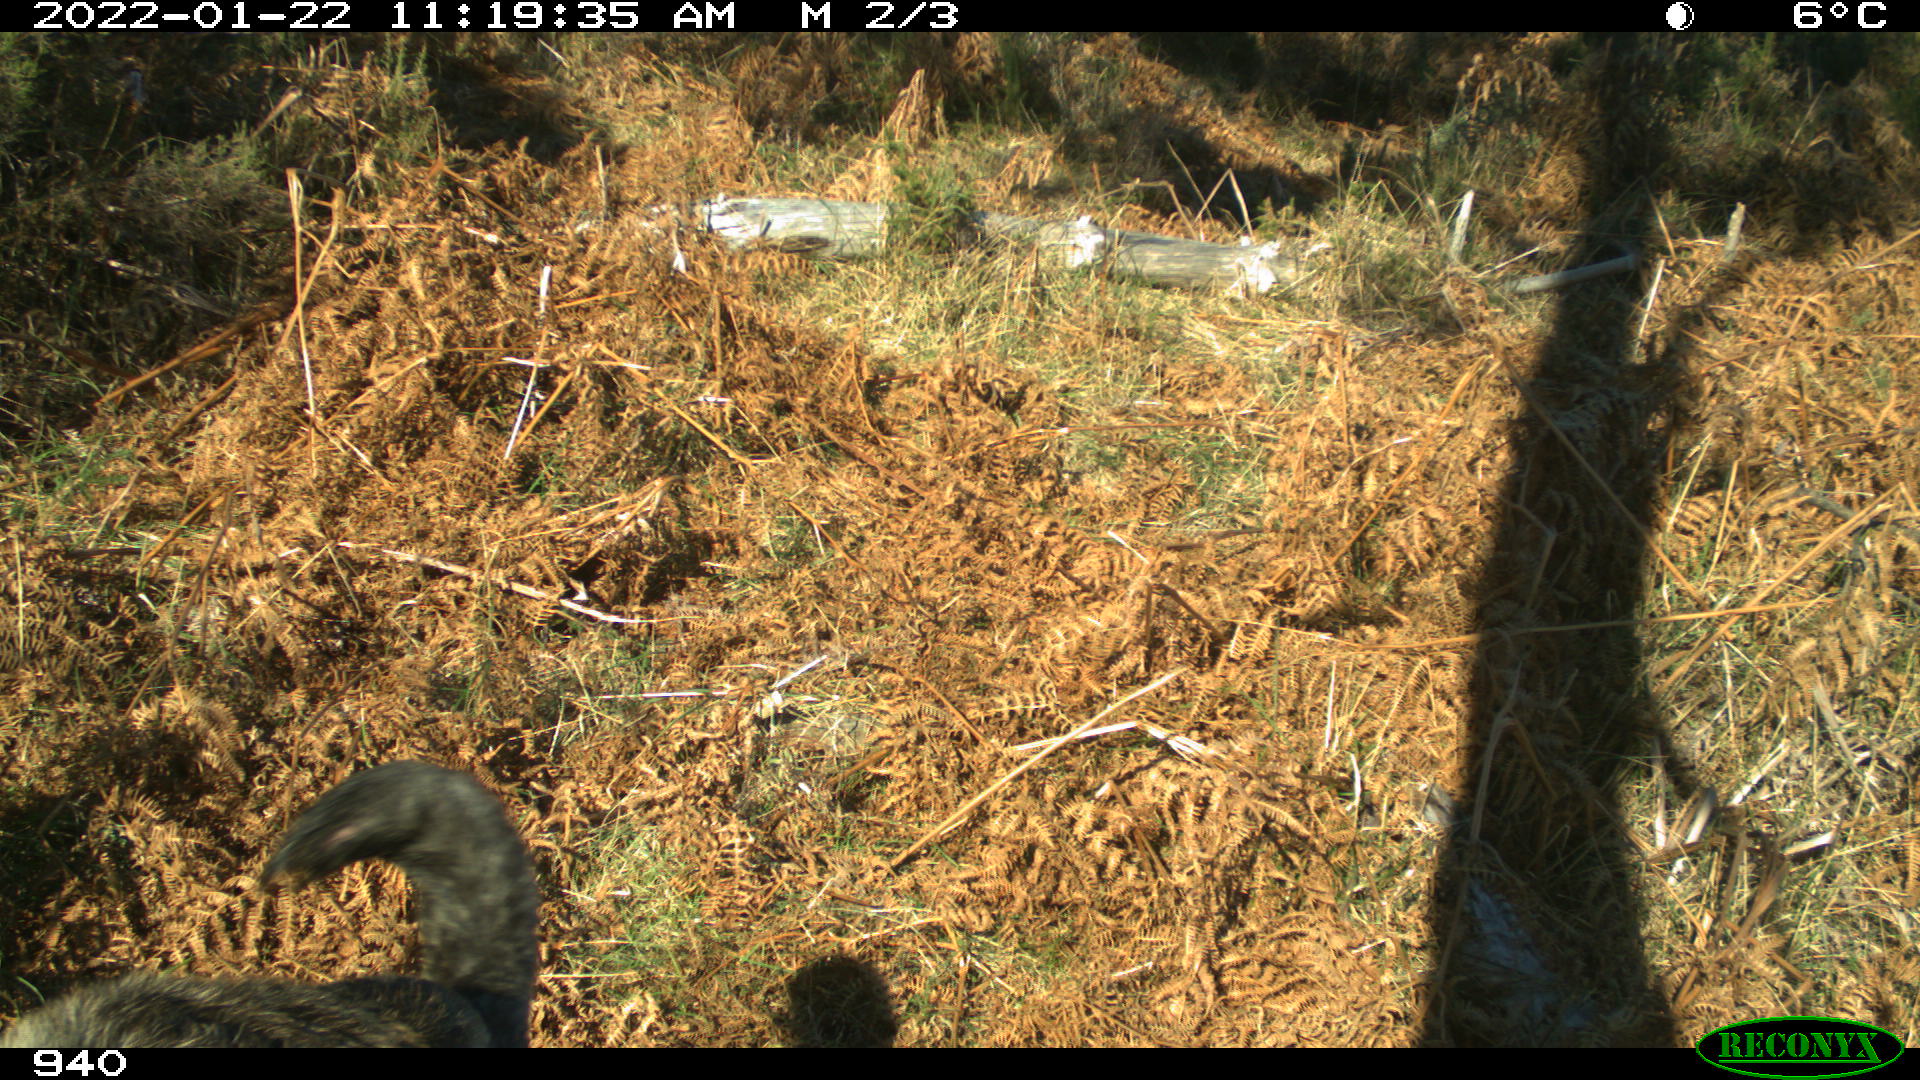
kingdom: Animalia
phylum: Chordata
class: Mammalia
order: Carnivora
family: Canidae
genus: Canis
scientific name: Canis lupus
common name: Gray wolf
